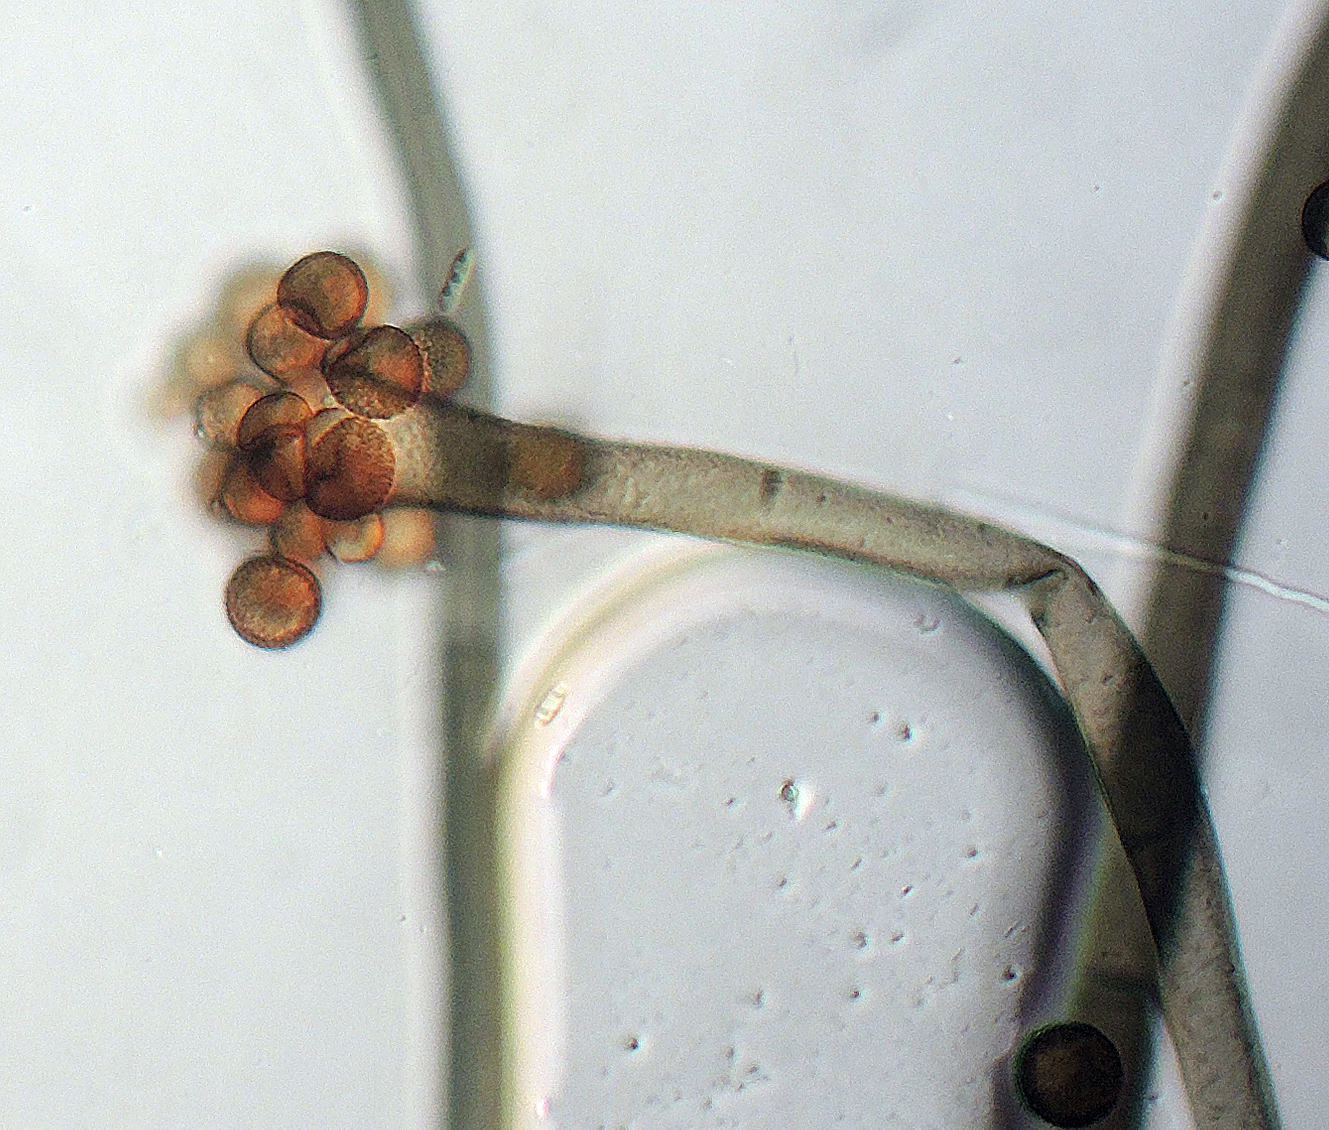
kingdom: Fungi
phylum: Ascomycota
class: Dothideomycetes
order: Pleosporales
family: Periconiaceae
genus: Periconia
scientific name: Periconia cookei
